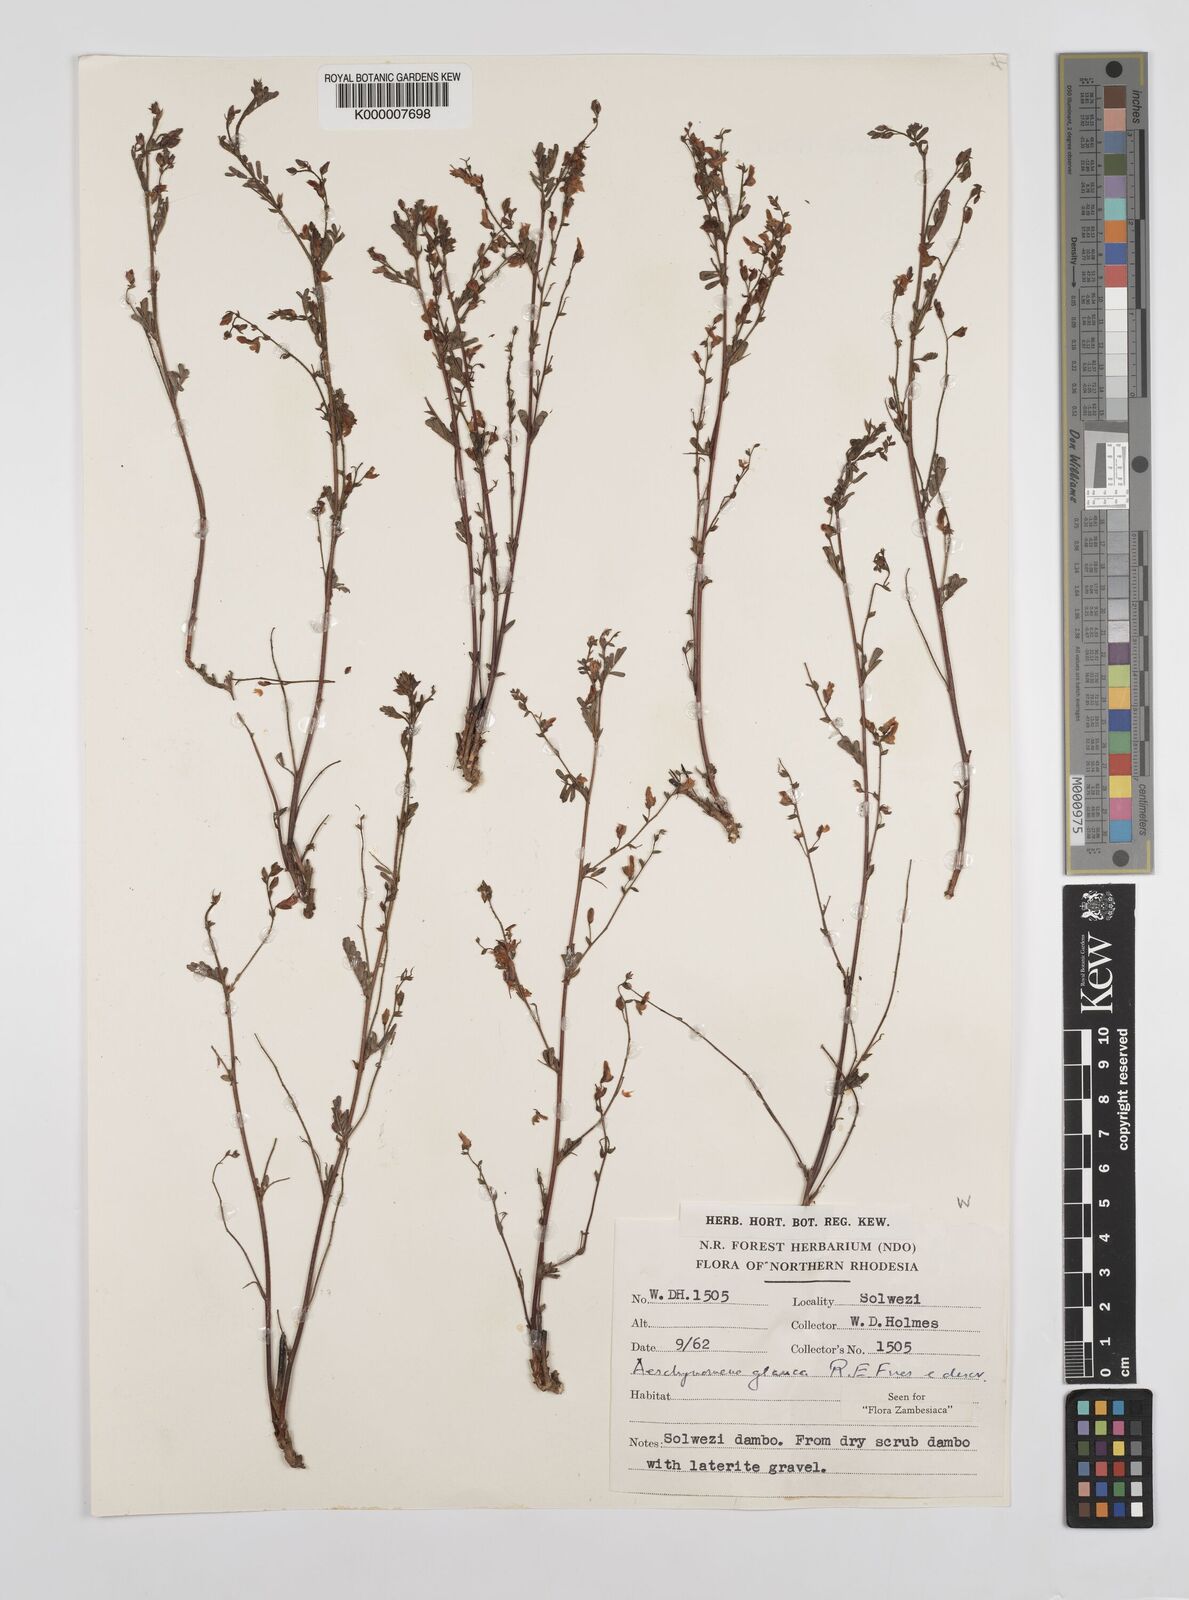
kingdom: Plantae
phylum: Tracheophyta
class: Magnoliopsida
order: Fabales
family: Fabaceae
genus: Aeschynomene
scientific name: Aeschynomene glauca
